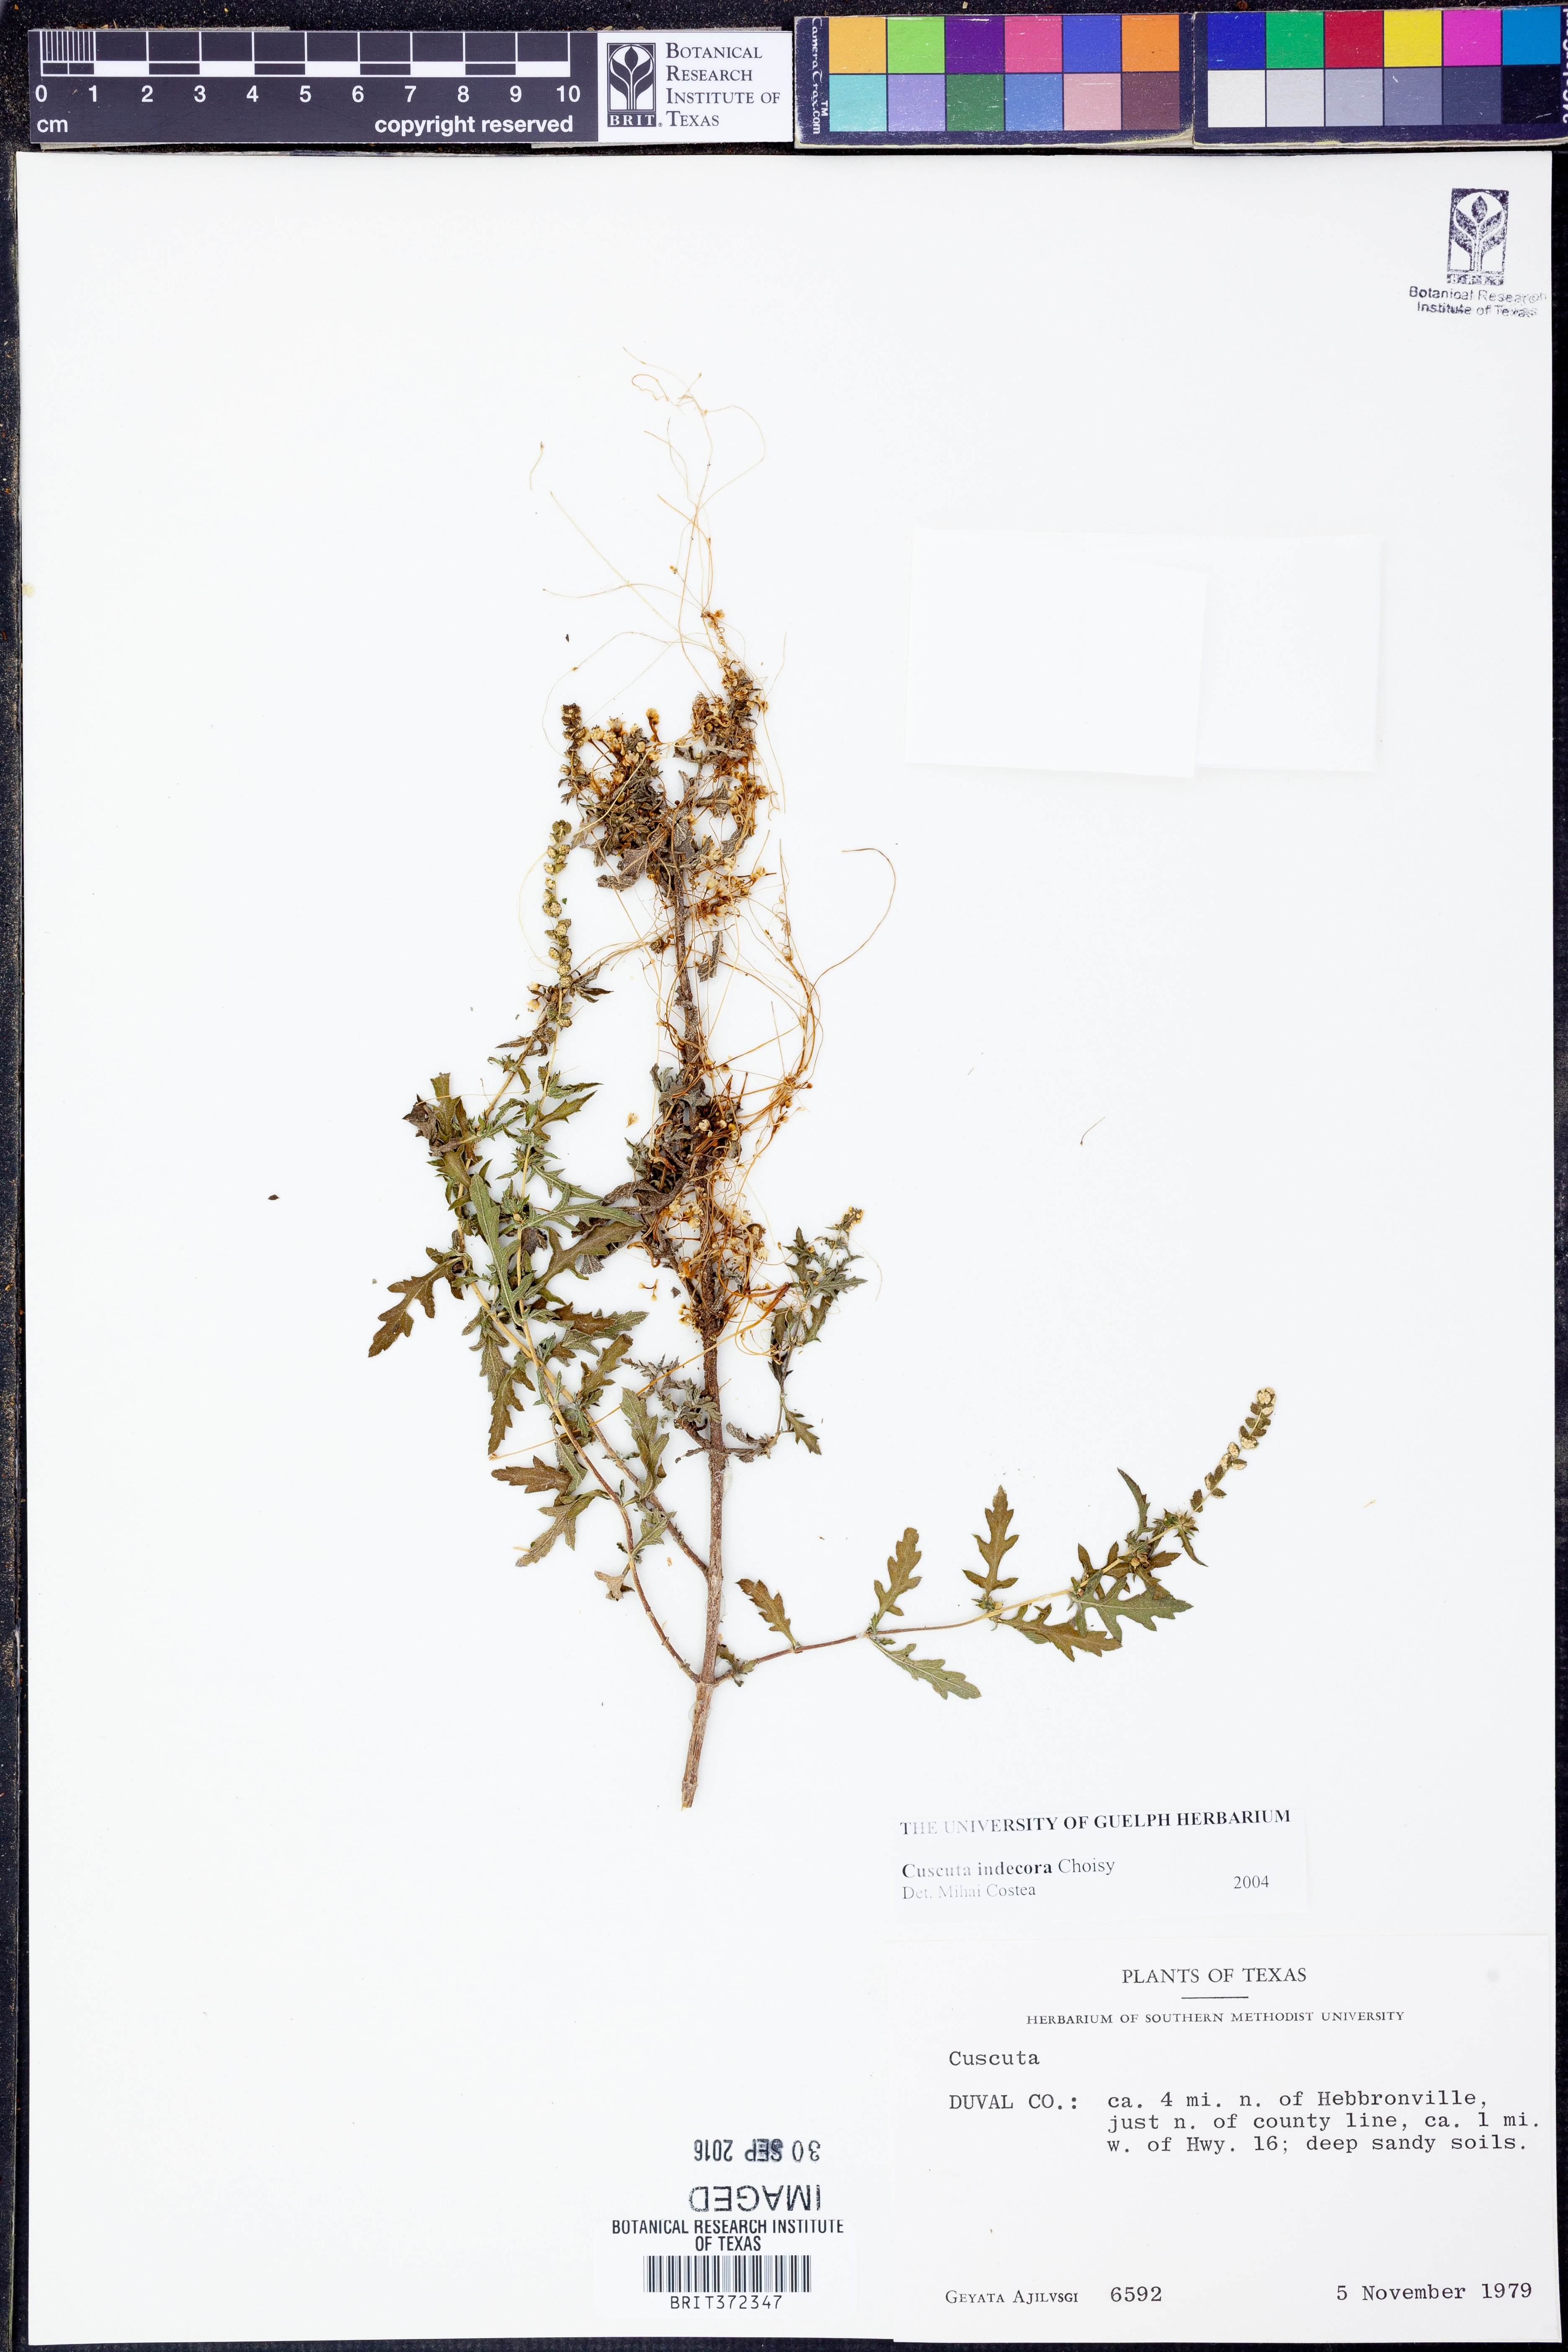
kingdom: Plantae
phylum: Tracheophyta
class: Magnoliopsida
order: Solanales
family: Convolvulaceae
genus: Cuscuta
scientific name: Cuscuta indecora
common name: Large-seed dodder
